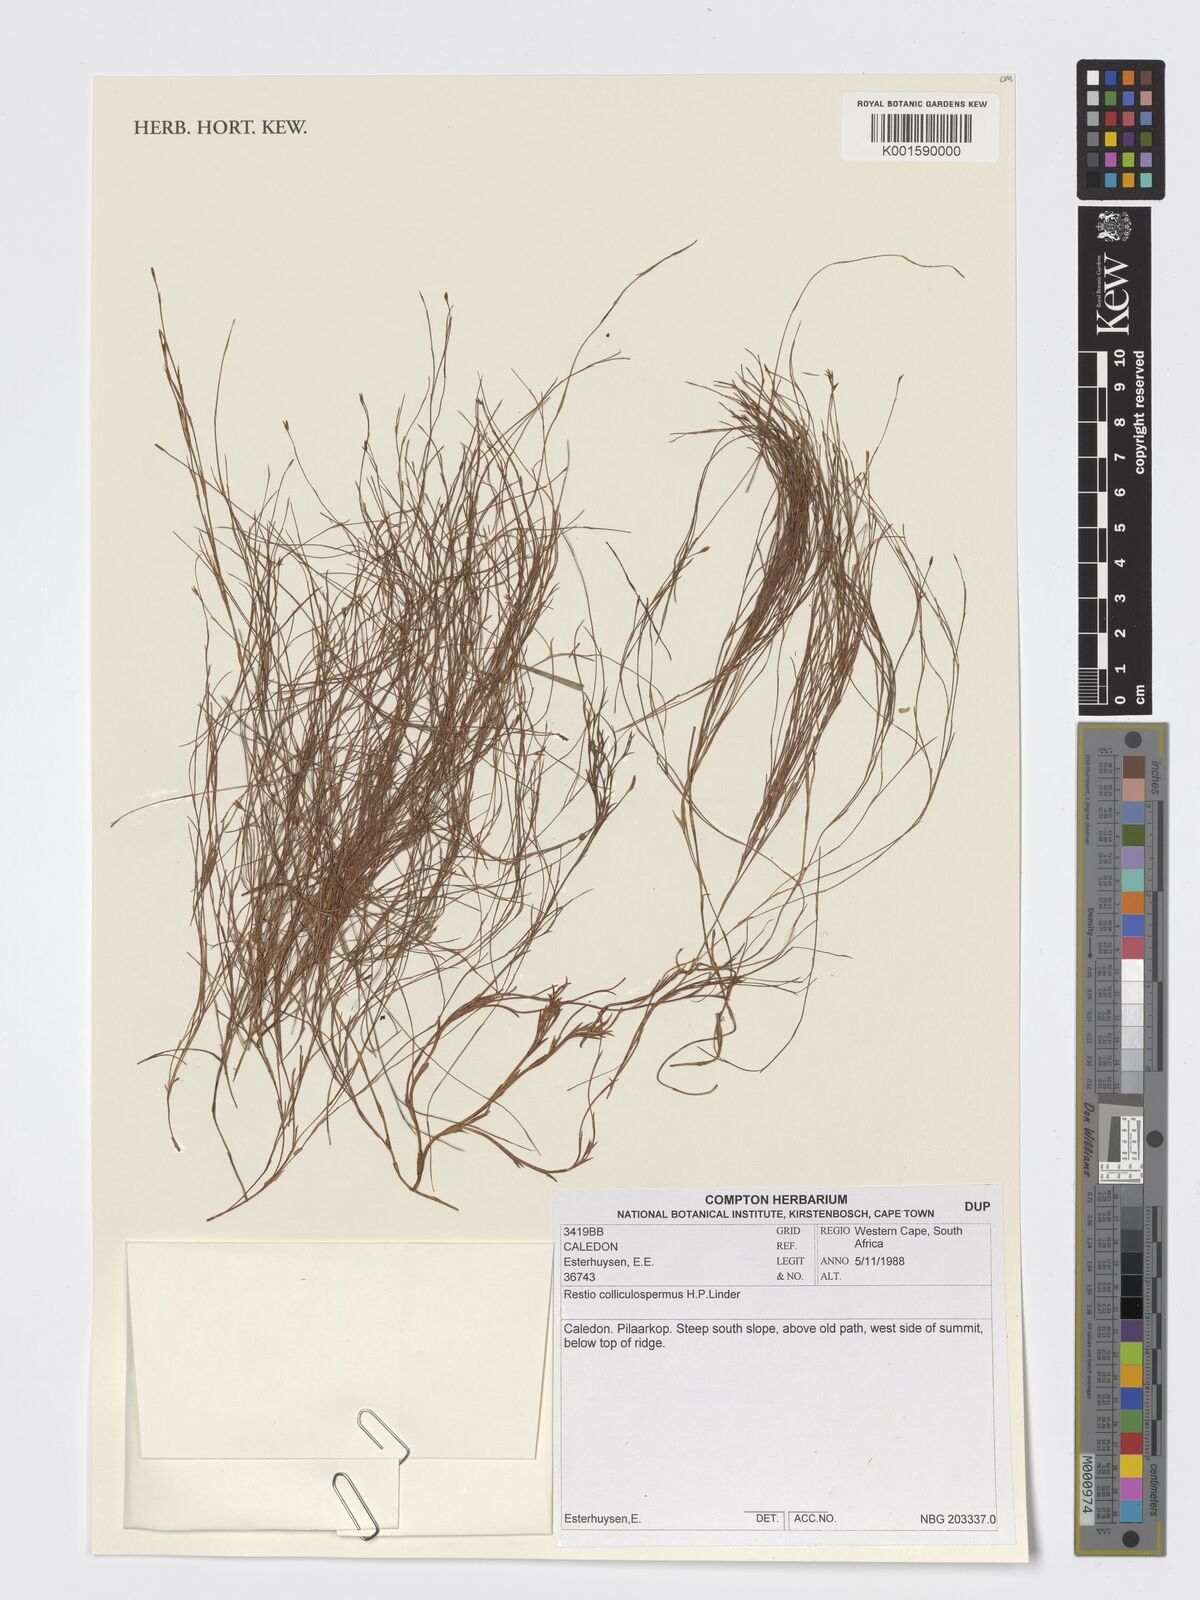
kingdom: Plantae
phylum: Tracheophyta
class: Liliopsida
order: Poales
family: Restionaceae
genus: Restio
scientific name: Restio colliculospermus
